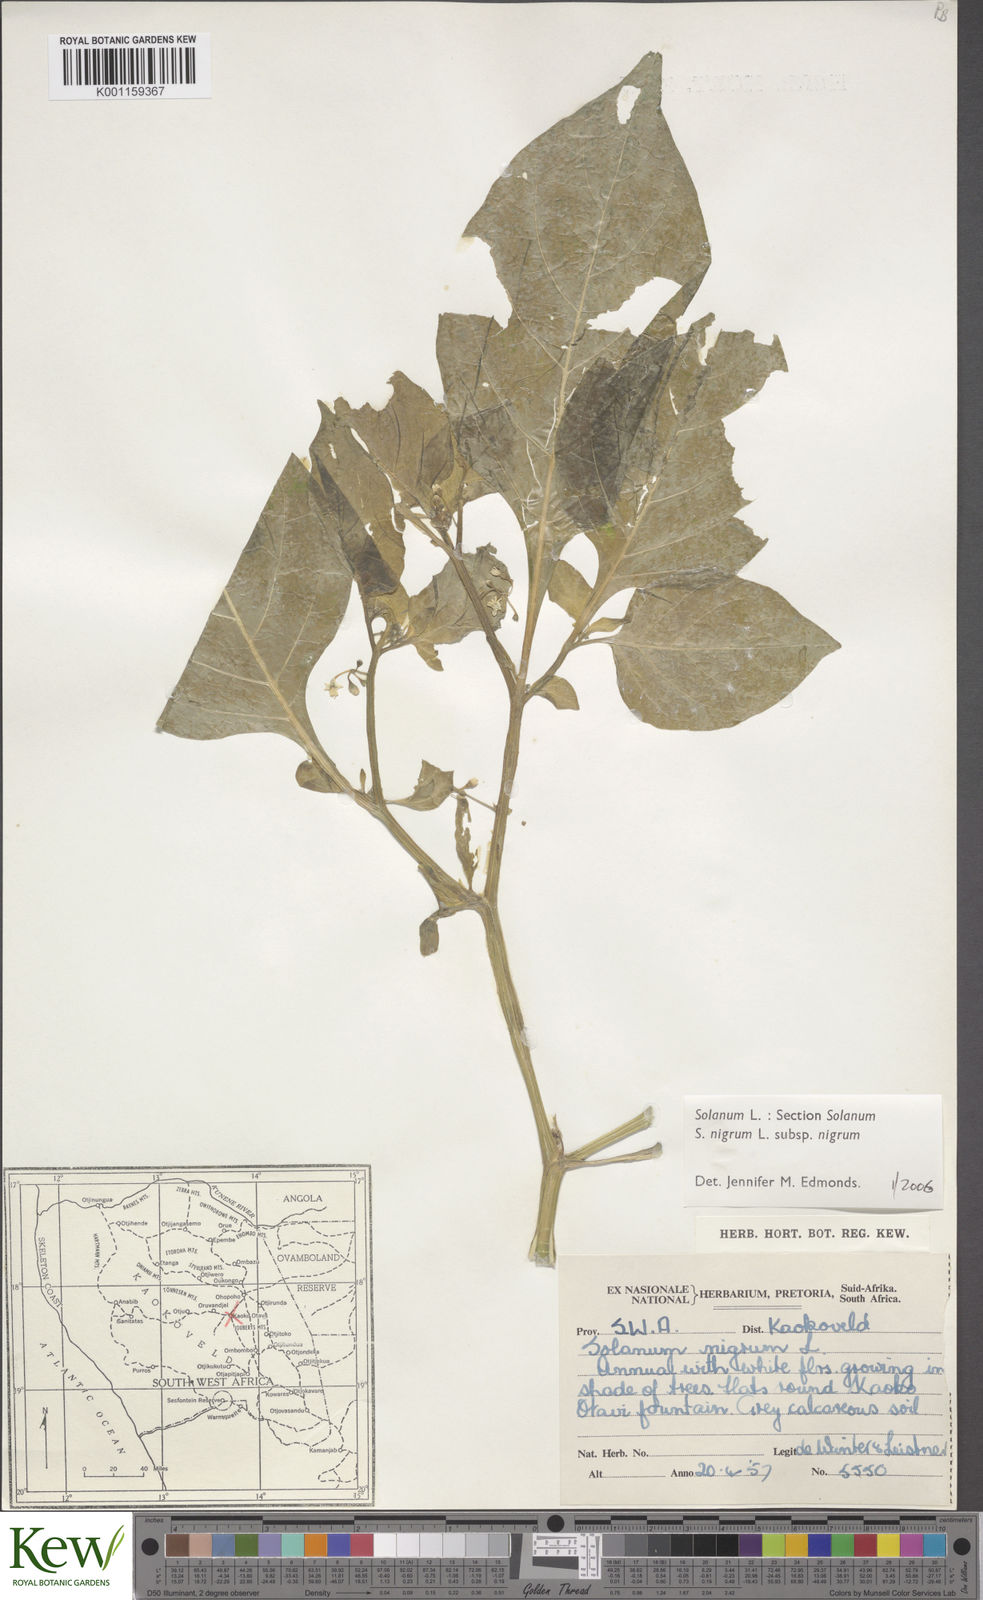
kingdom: Plantae
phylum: Tracheophyta
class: Magnoliopsida
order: Solanales
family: Solanaceae
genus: Solanum
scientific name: Solanum scabrum
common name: Garden-huckleberry
